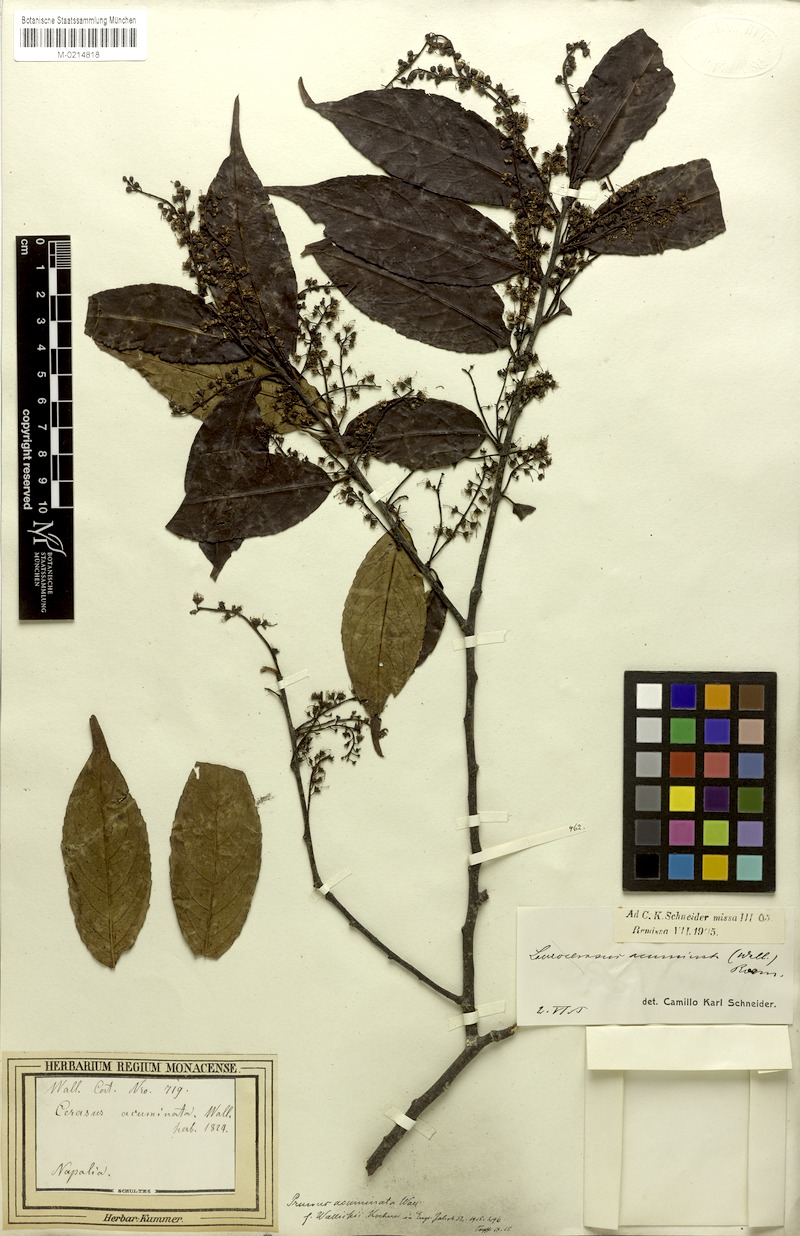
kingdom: Plantae
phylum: Tracheophyta
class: Magnoliopsida
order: Rosales
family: Rosaceae
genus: Prunus
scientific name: Prunus undulata
